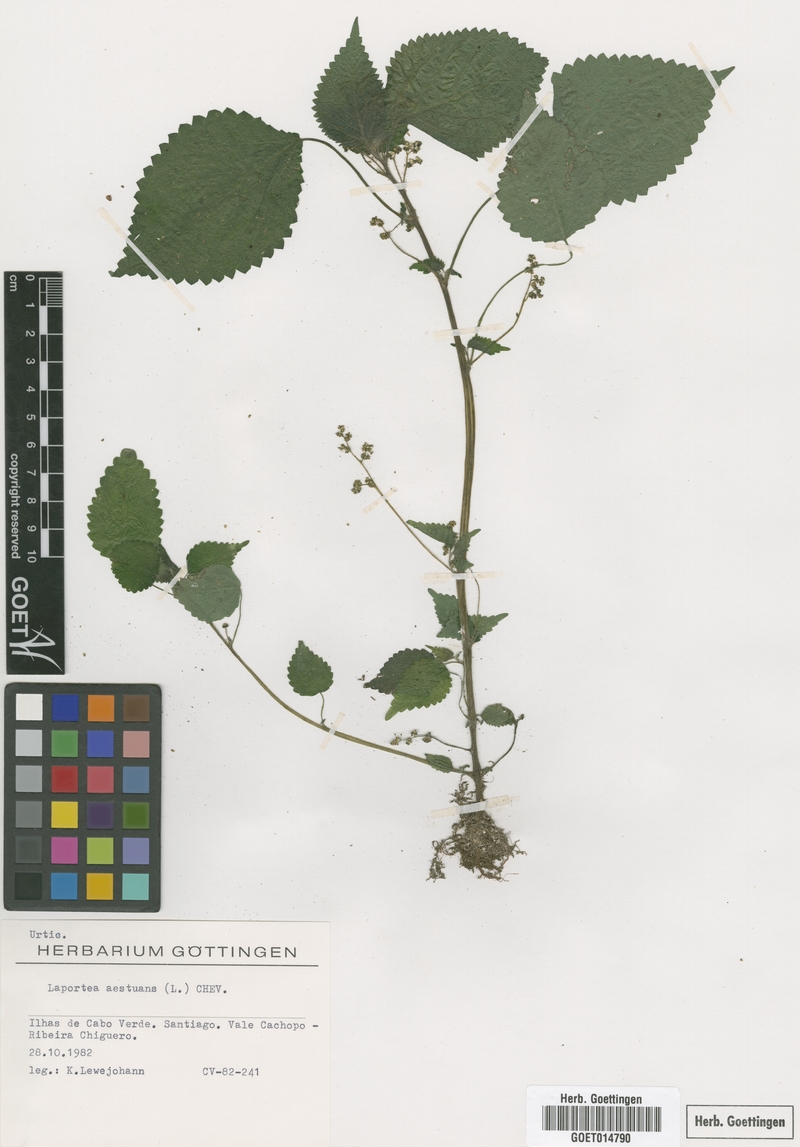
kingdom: Plantae
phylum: Tracheophyta
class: Magnoliopsida
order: Rosales
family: Urticaceae
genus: Laportea
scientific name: Laportea aestuans
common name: West indian woodnettle
